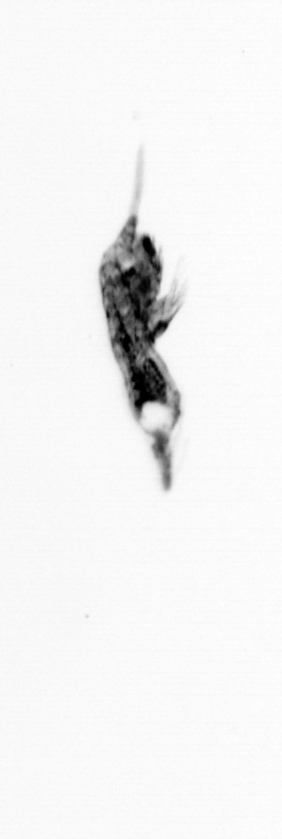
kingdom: Animalia
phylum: Arthropoda
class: Copepoda
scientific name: Copepoda
